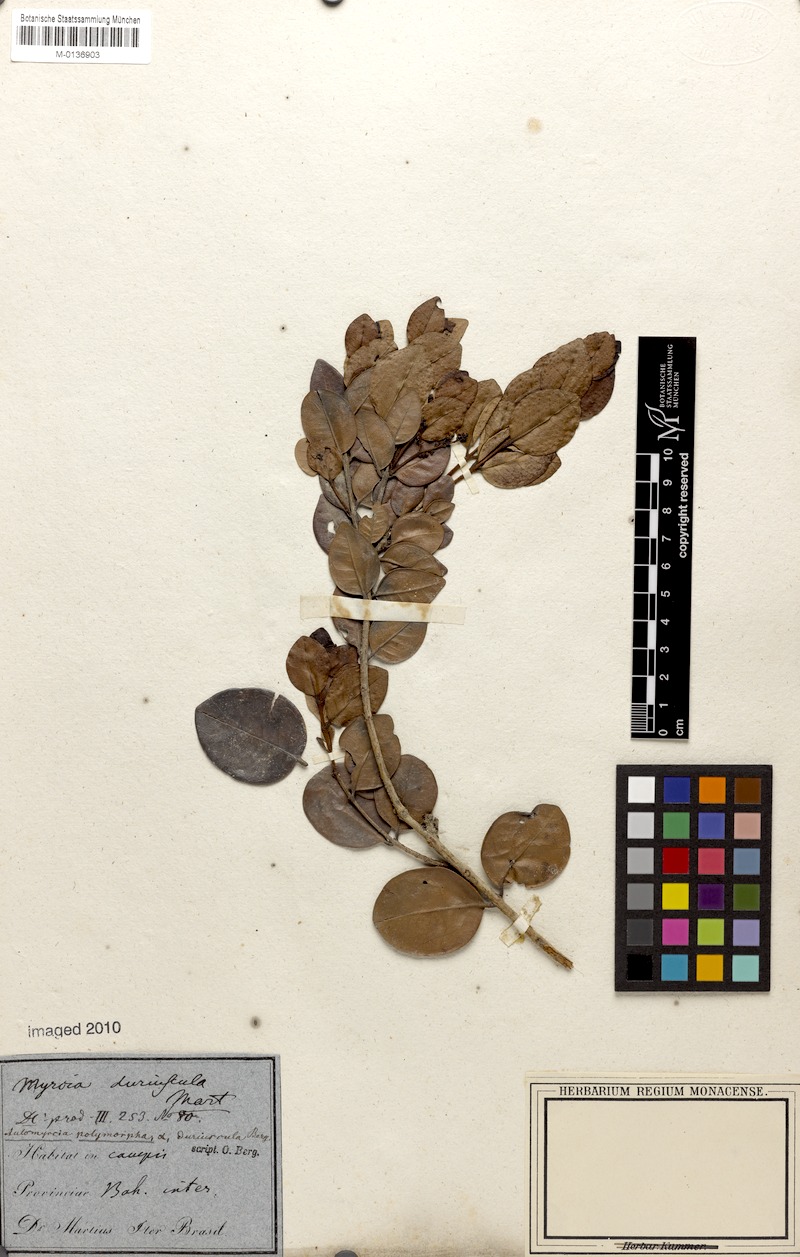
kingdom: Plantae
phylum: Tracheophyta
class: Magnoliopsida
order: Myrtales
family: Myrtaceae
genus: Myrcia
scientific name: Myrcia decorticans
